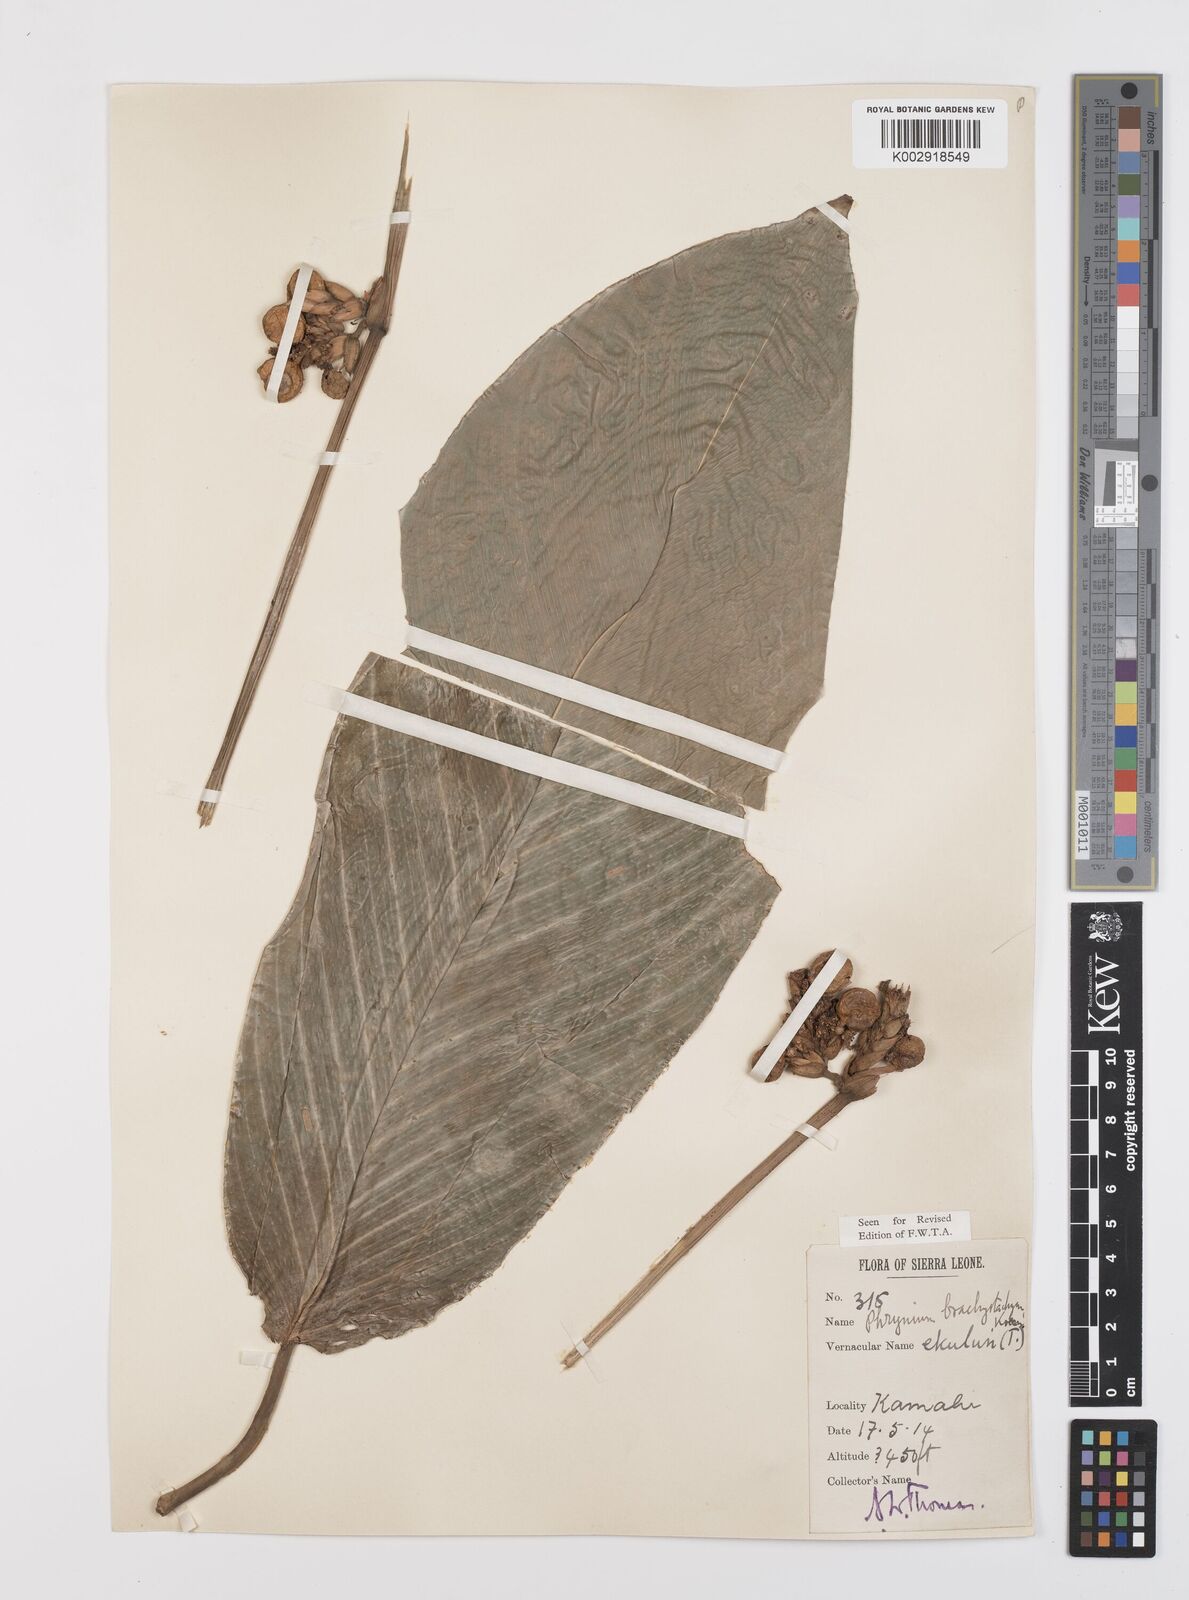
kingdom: Plantae
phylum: Tracheophyta
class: Liliopsida
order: Zingiberales
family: Marantaceae
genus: Sarcophrynium
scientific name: Sarcophrynium brachystachyum
